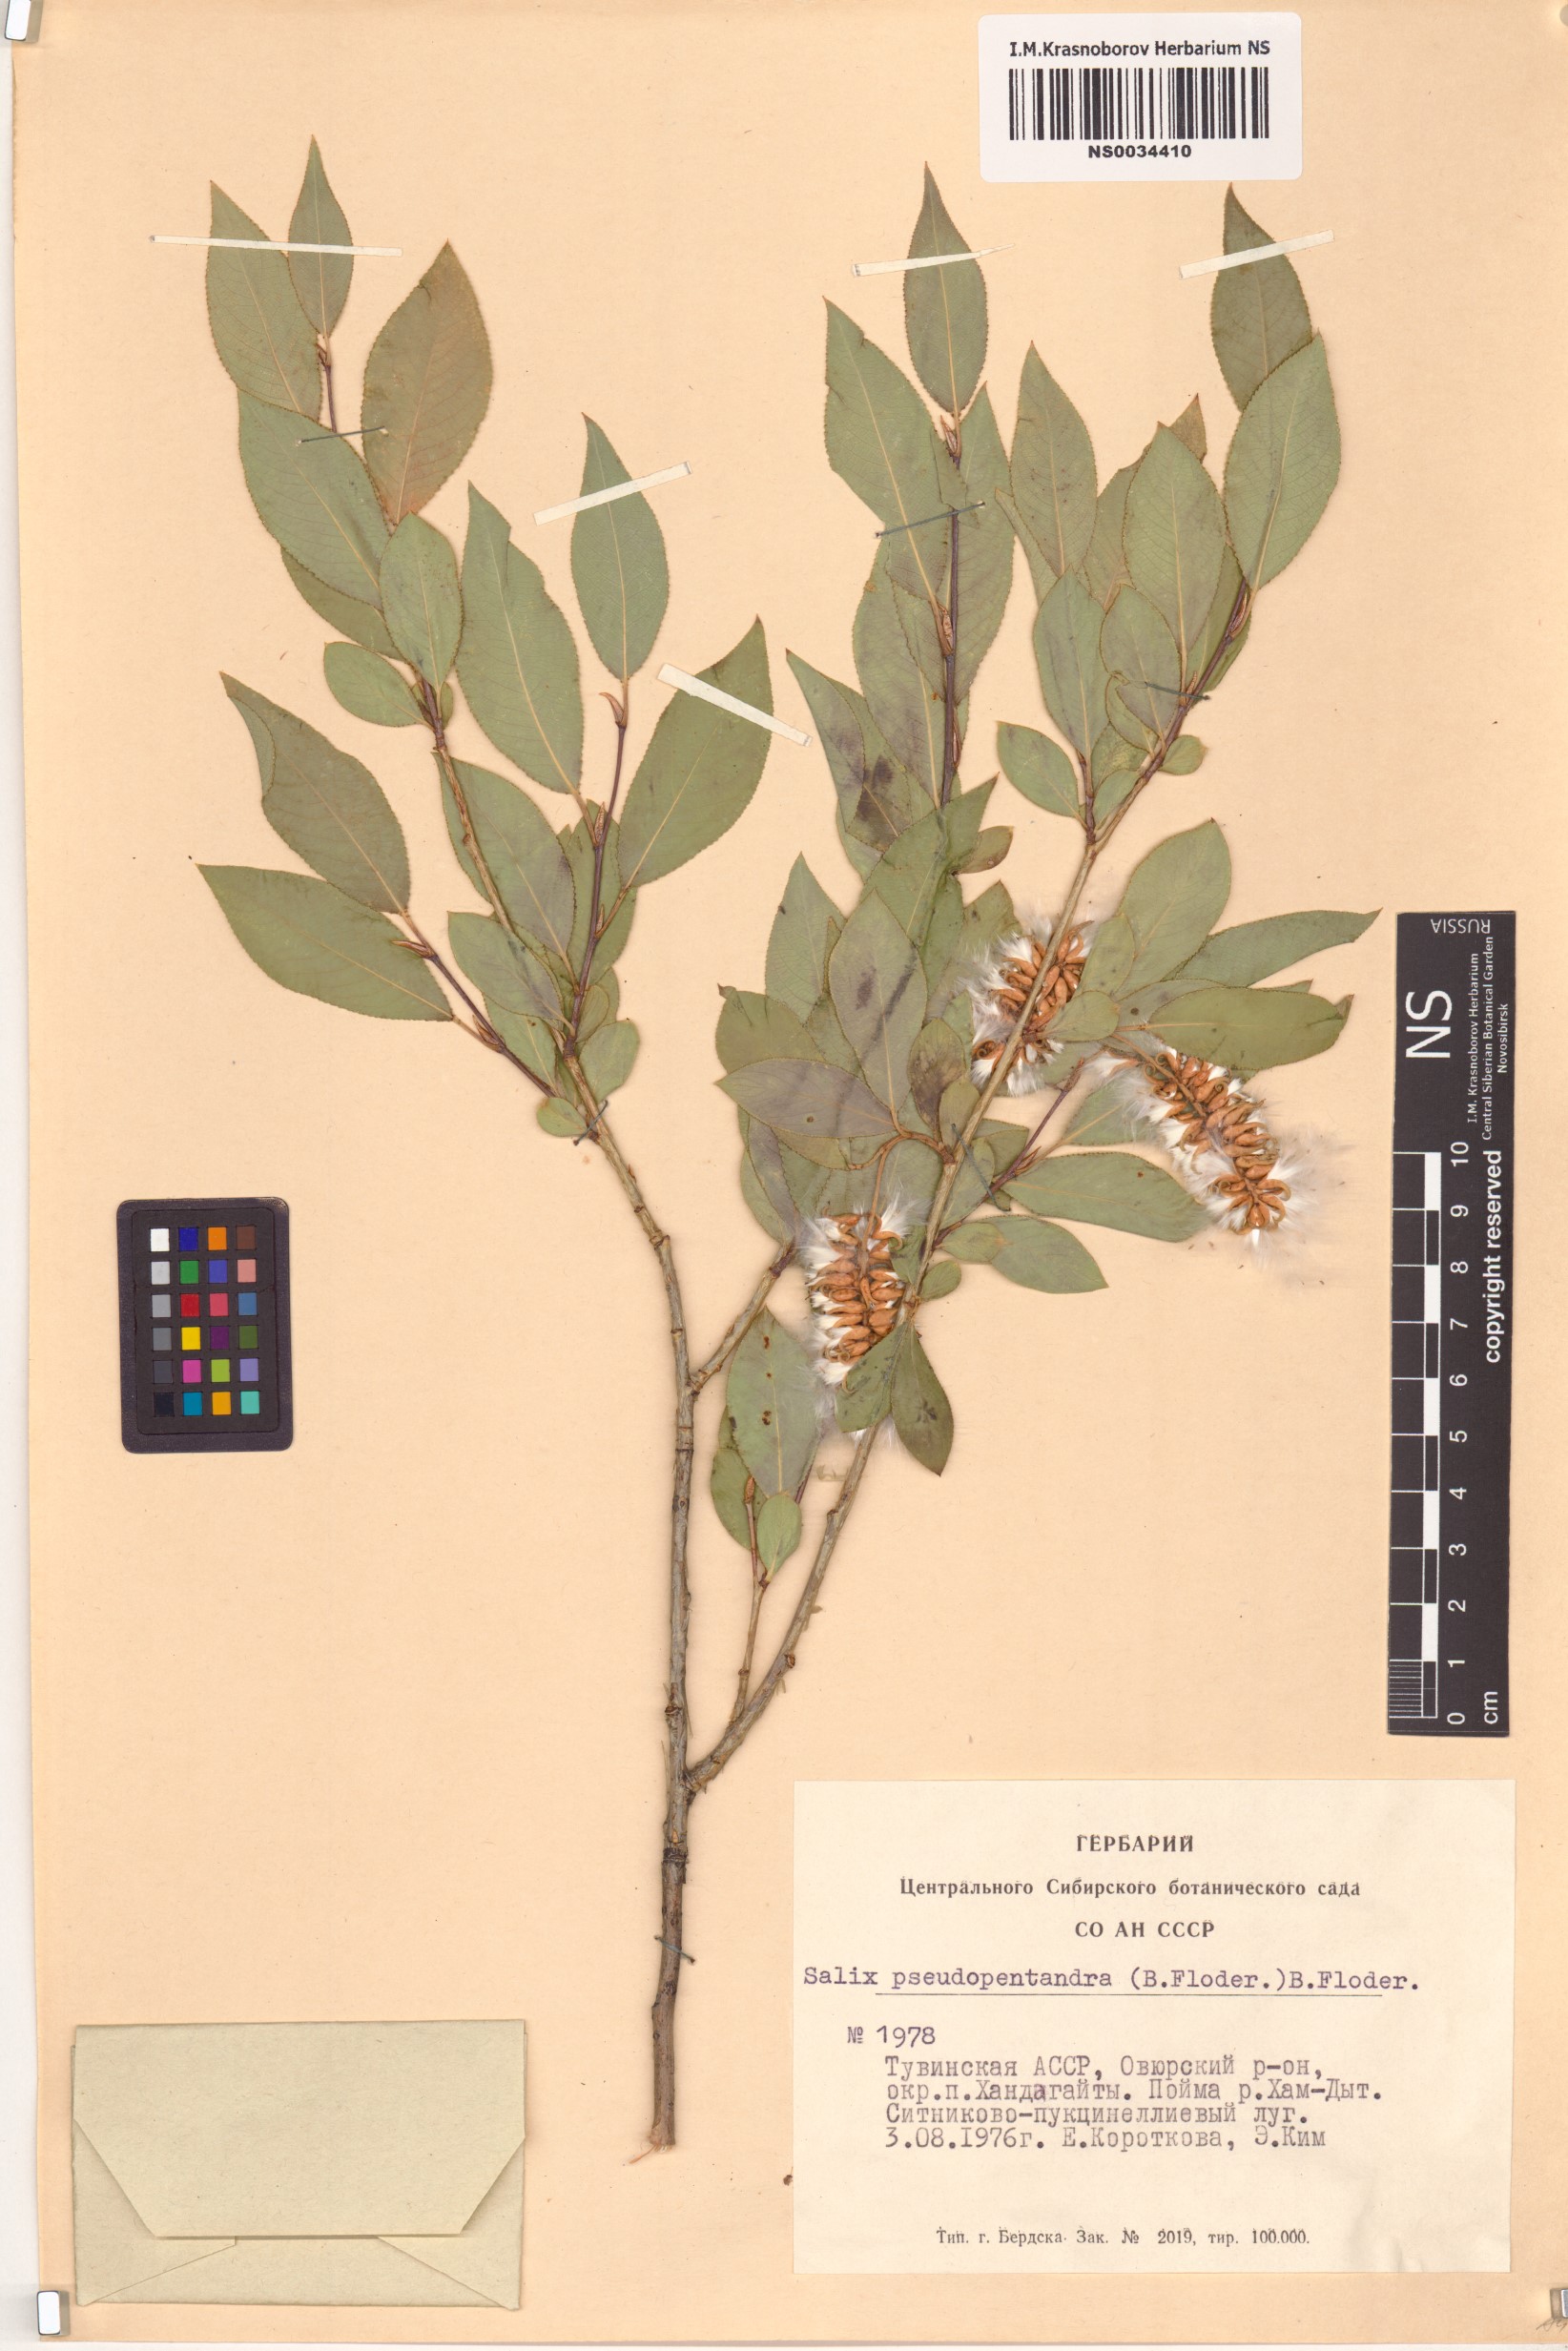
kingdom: Plantae
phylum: Tracheophyta
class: Magnoliopsida
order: Malpighiales
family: Salicaceae
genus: Salix
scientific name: Salix pseudopentandra
